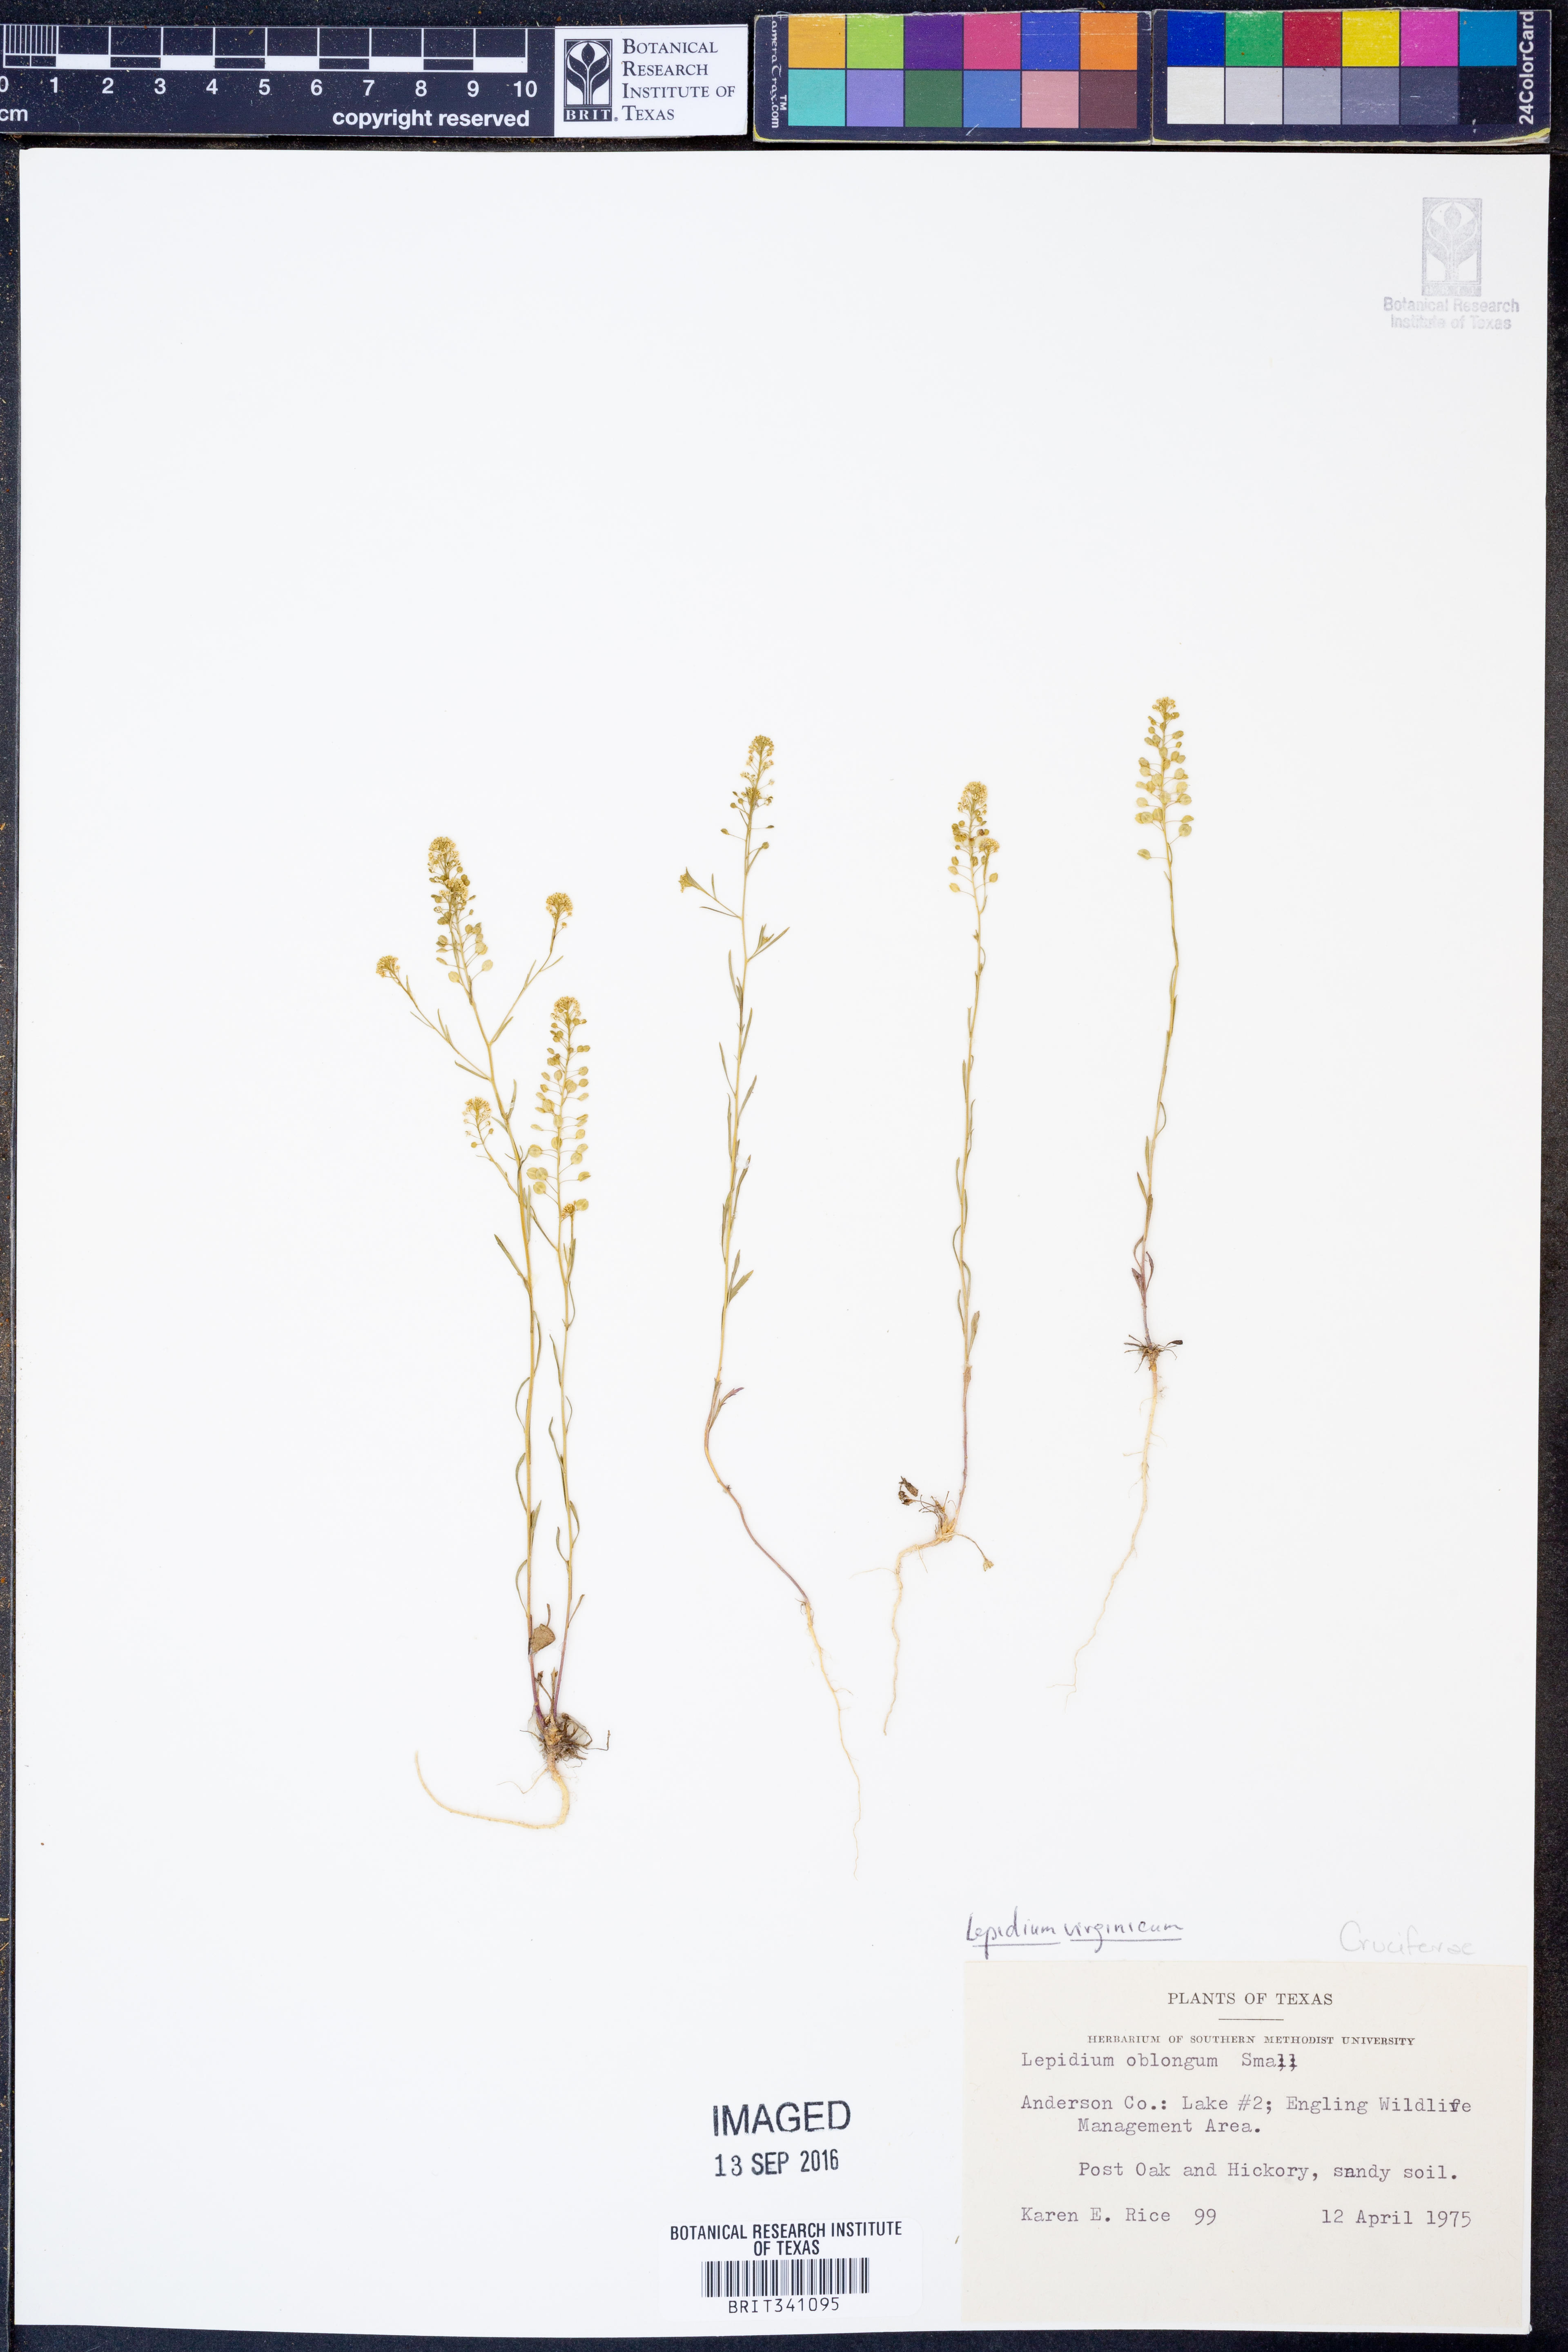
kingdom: Plantae
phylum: Tracheophyta
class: Magnoliopsida
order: Brassicales
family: Brassicaceae
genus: Lepidium
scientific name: Lepidium virginicum
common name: Least pepperwort
